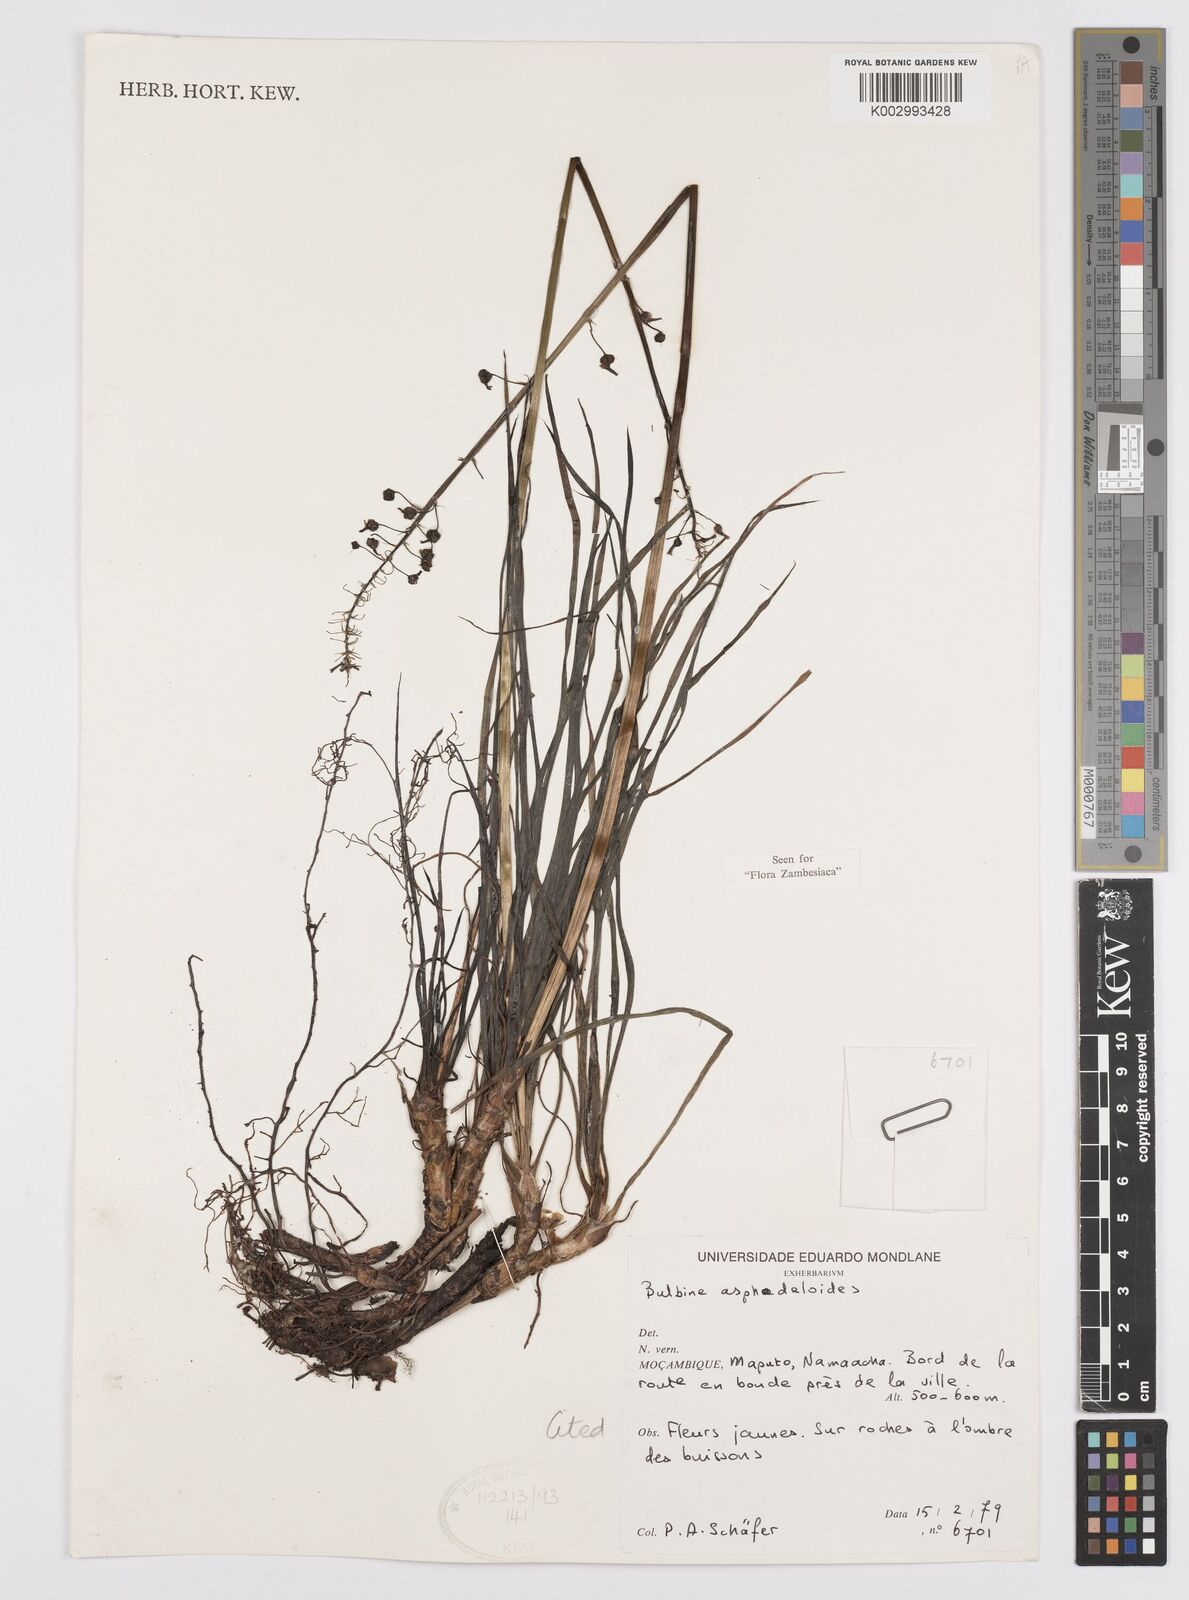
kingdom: Plantae
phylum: Tracheophyta
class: Liliopsida
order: Asparagales
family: Asphodelaceae
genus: Bulbine
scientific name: Bulbine asphodeloides
